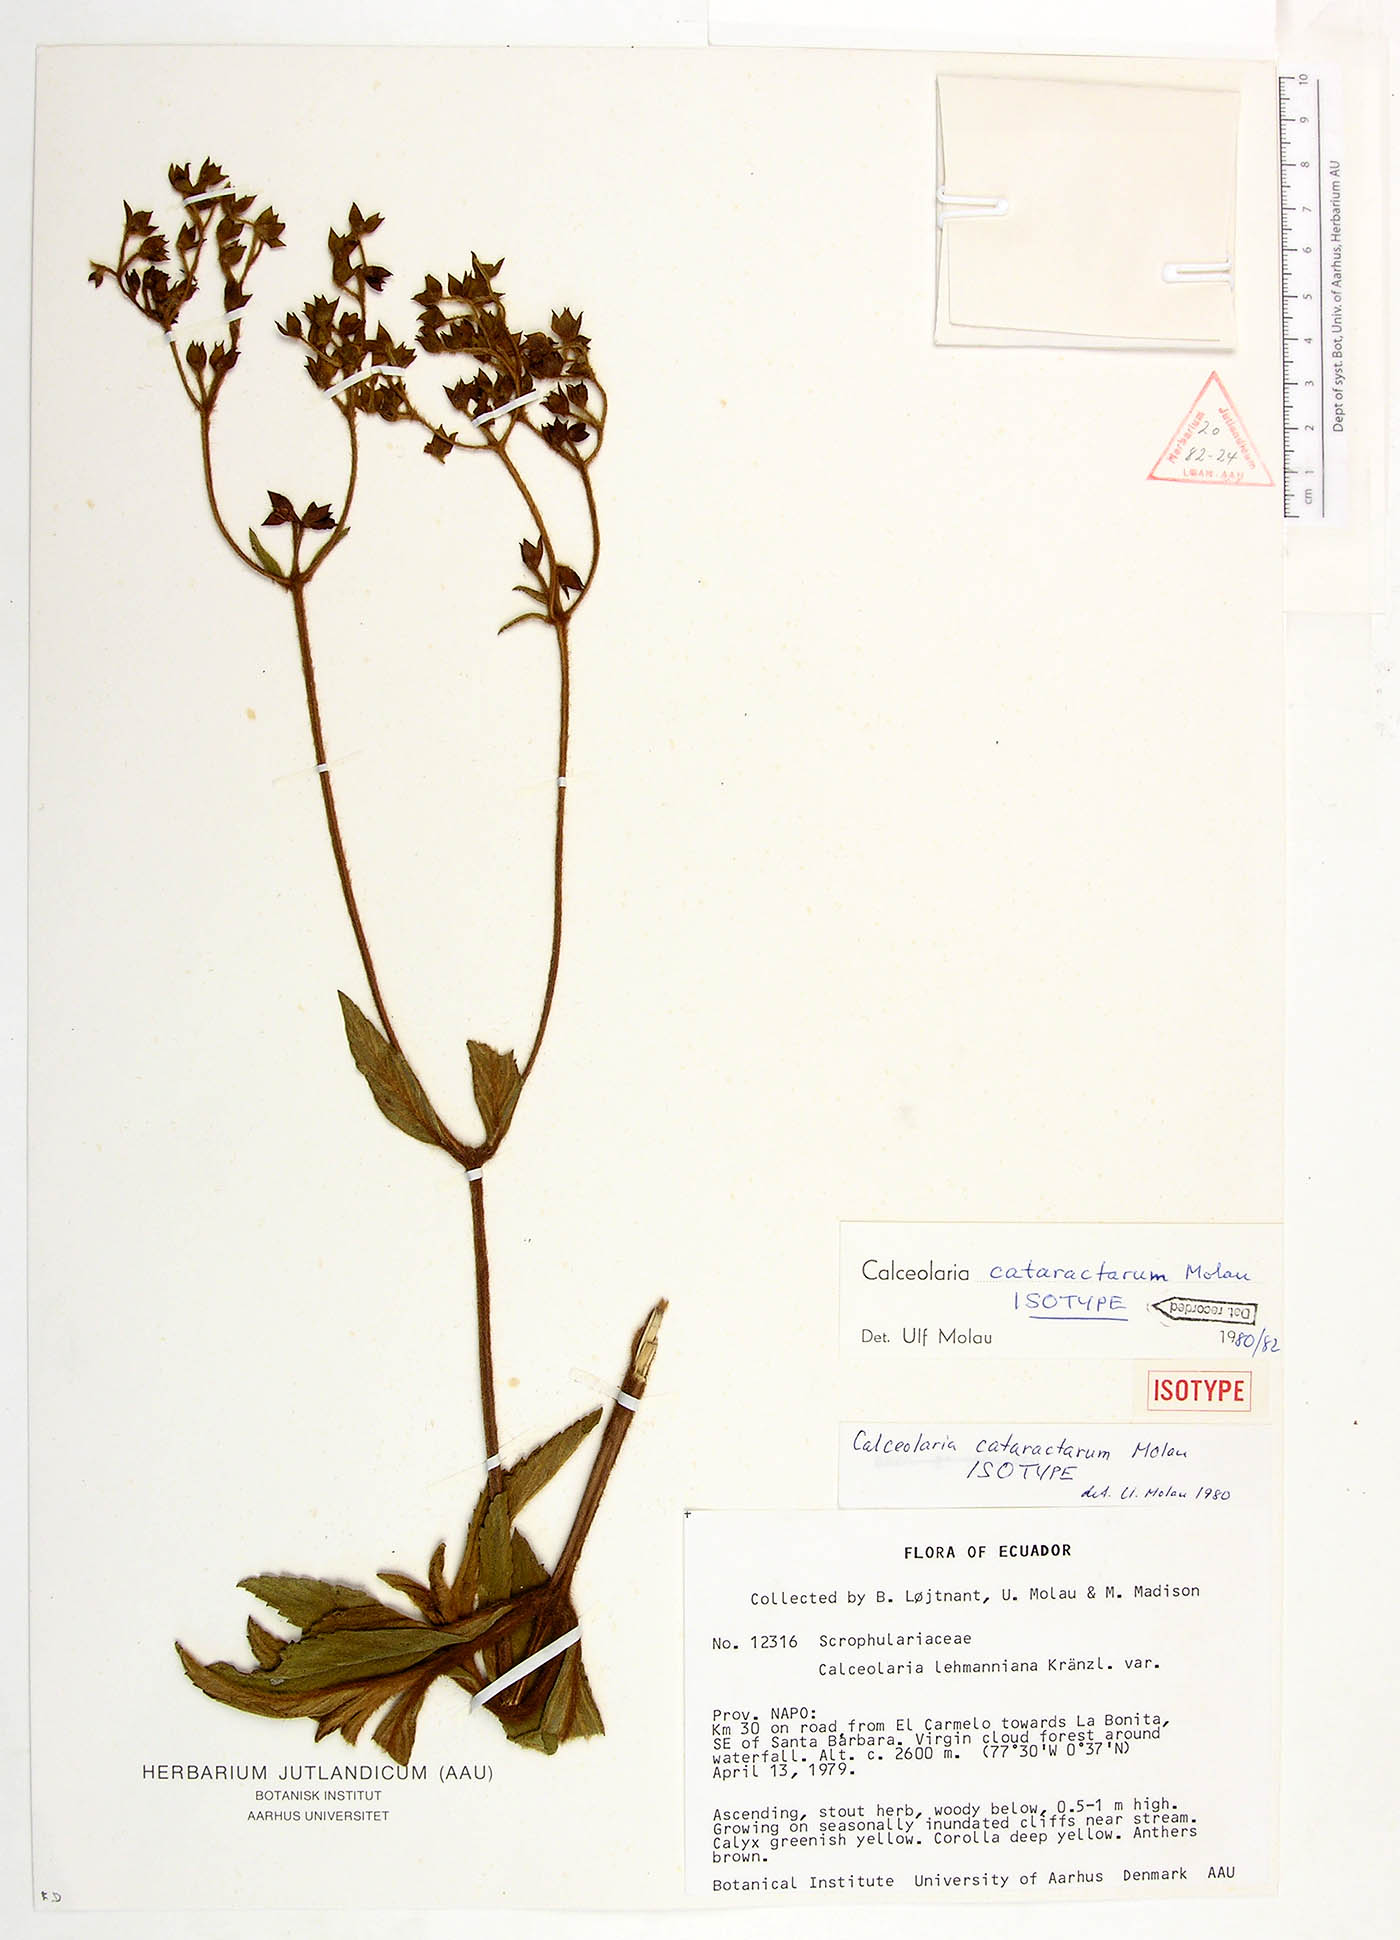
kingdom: Plantae
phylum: Tracheophyta
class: Magnoliopsida
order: Lamiales
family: Calceolariaceae
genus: Calceolaria
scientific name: Calceolaria cataractarum
